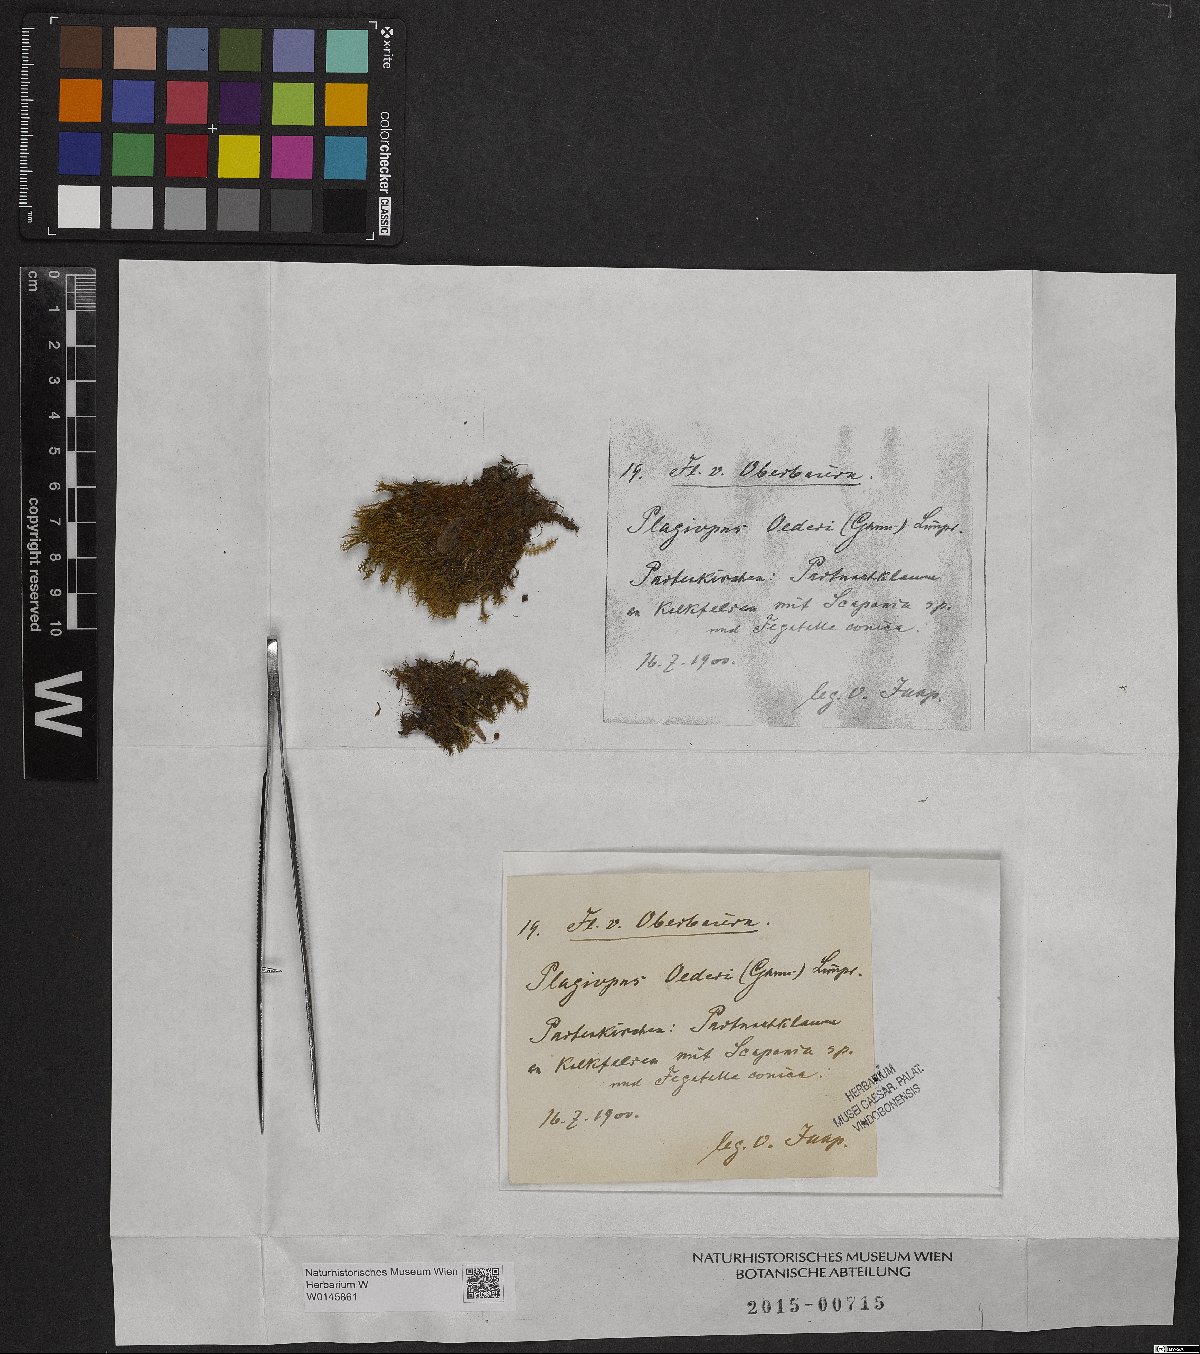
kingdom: Plantae
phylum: Bryophyta
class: Bryopsida
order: Bartramiales
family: Bartramiaceae
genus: Plagiopus
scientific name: Plagiopus oederianus
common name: Oeder's apple moss
